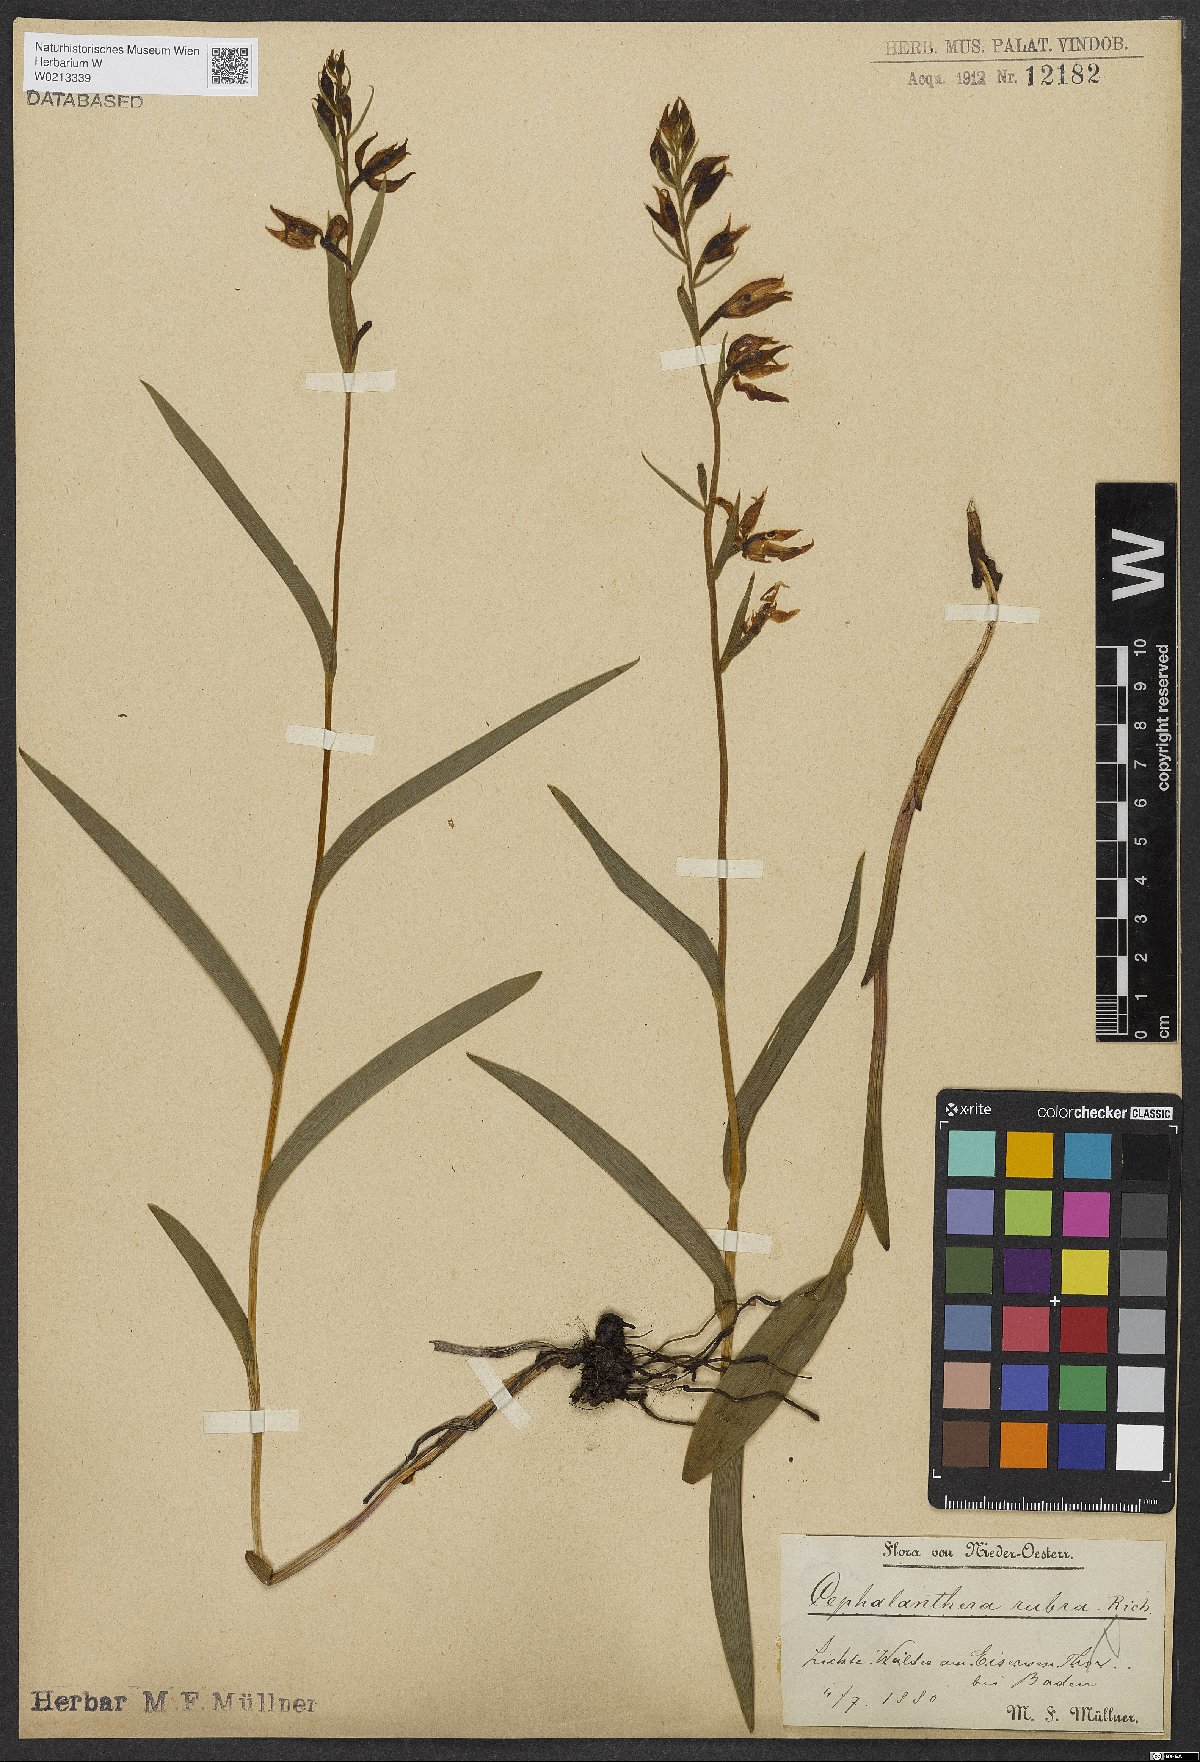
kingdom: Plantae
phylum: Tracheophyta
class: Liliopsida
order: Asparagales
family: Orchidaceae
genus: Cephalanthera
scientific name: Cephalanthera rubra
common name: Red helleborine
